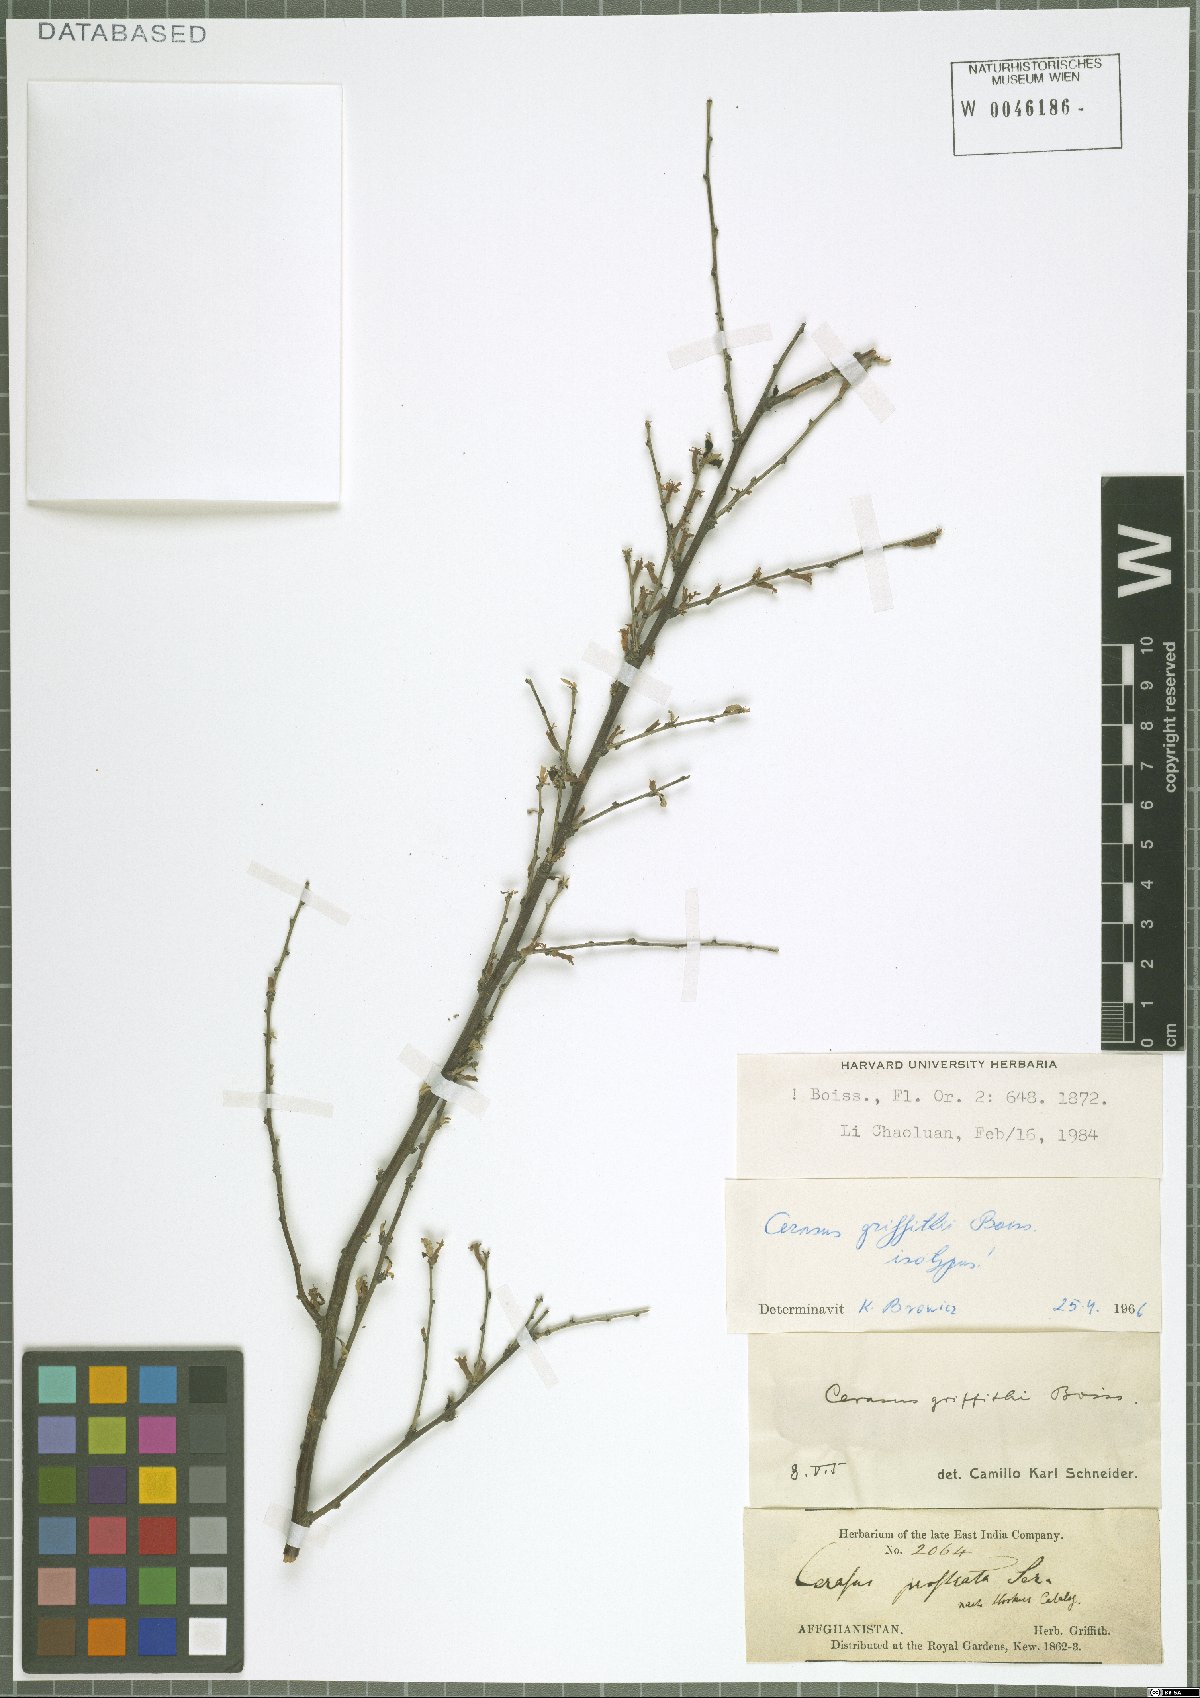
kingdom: Plantae
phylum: Tracheophyta
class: Magnoliopsida
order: Rosales
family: Rosaceae
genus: Prunus
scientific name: Prunus griffithii
